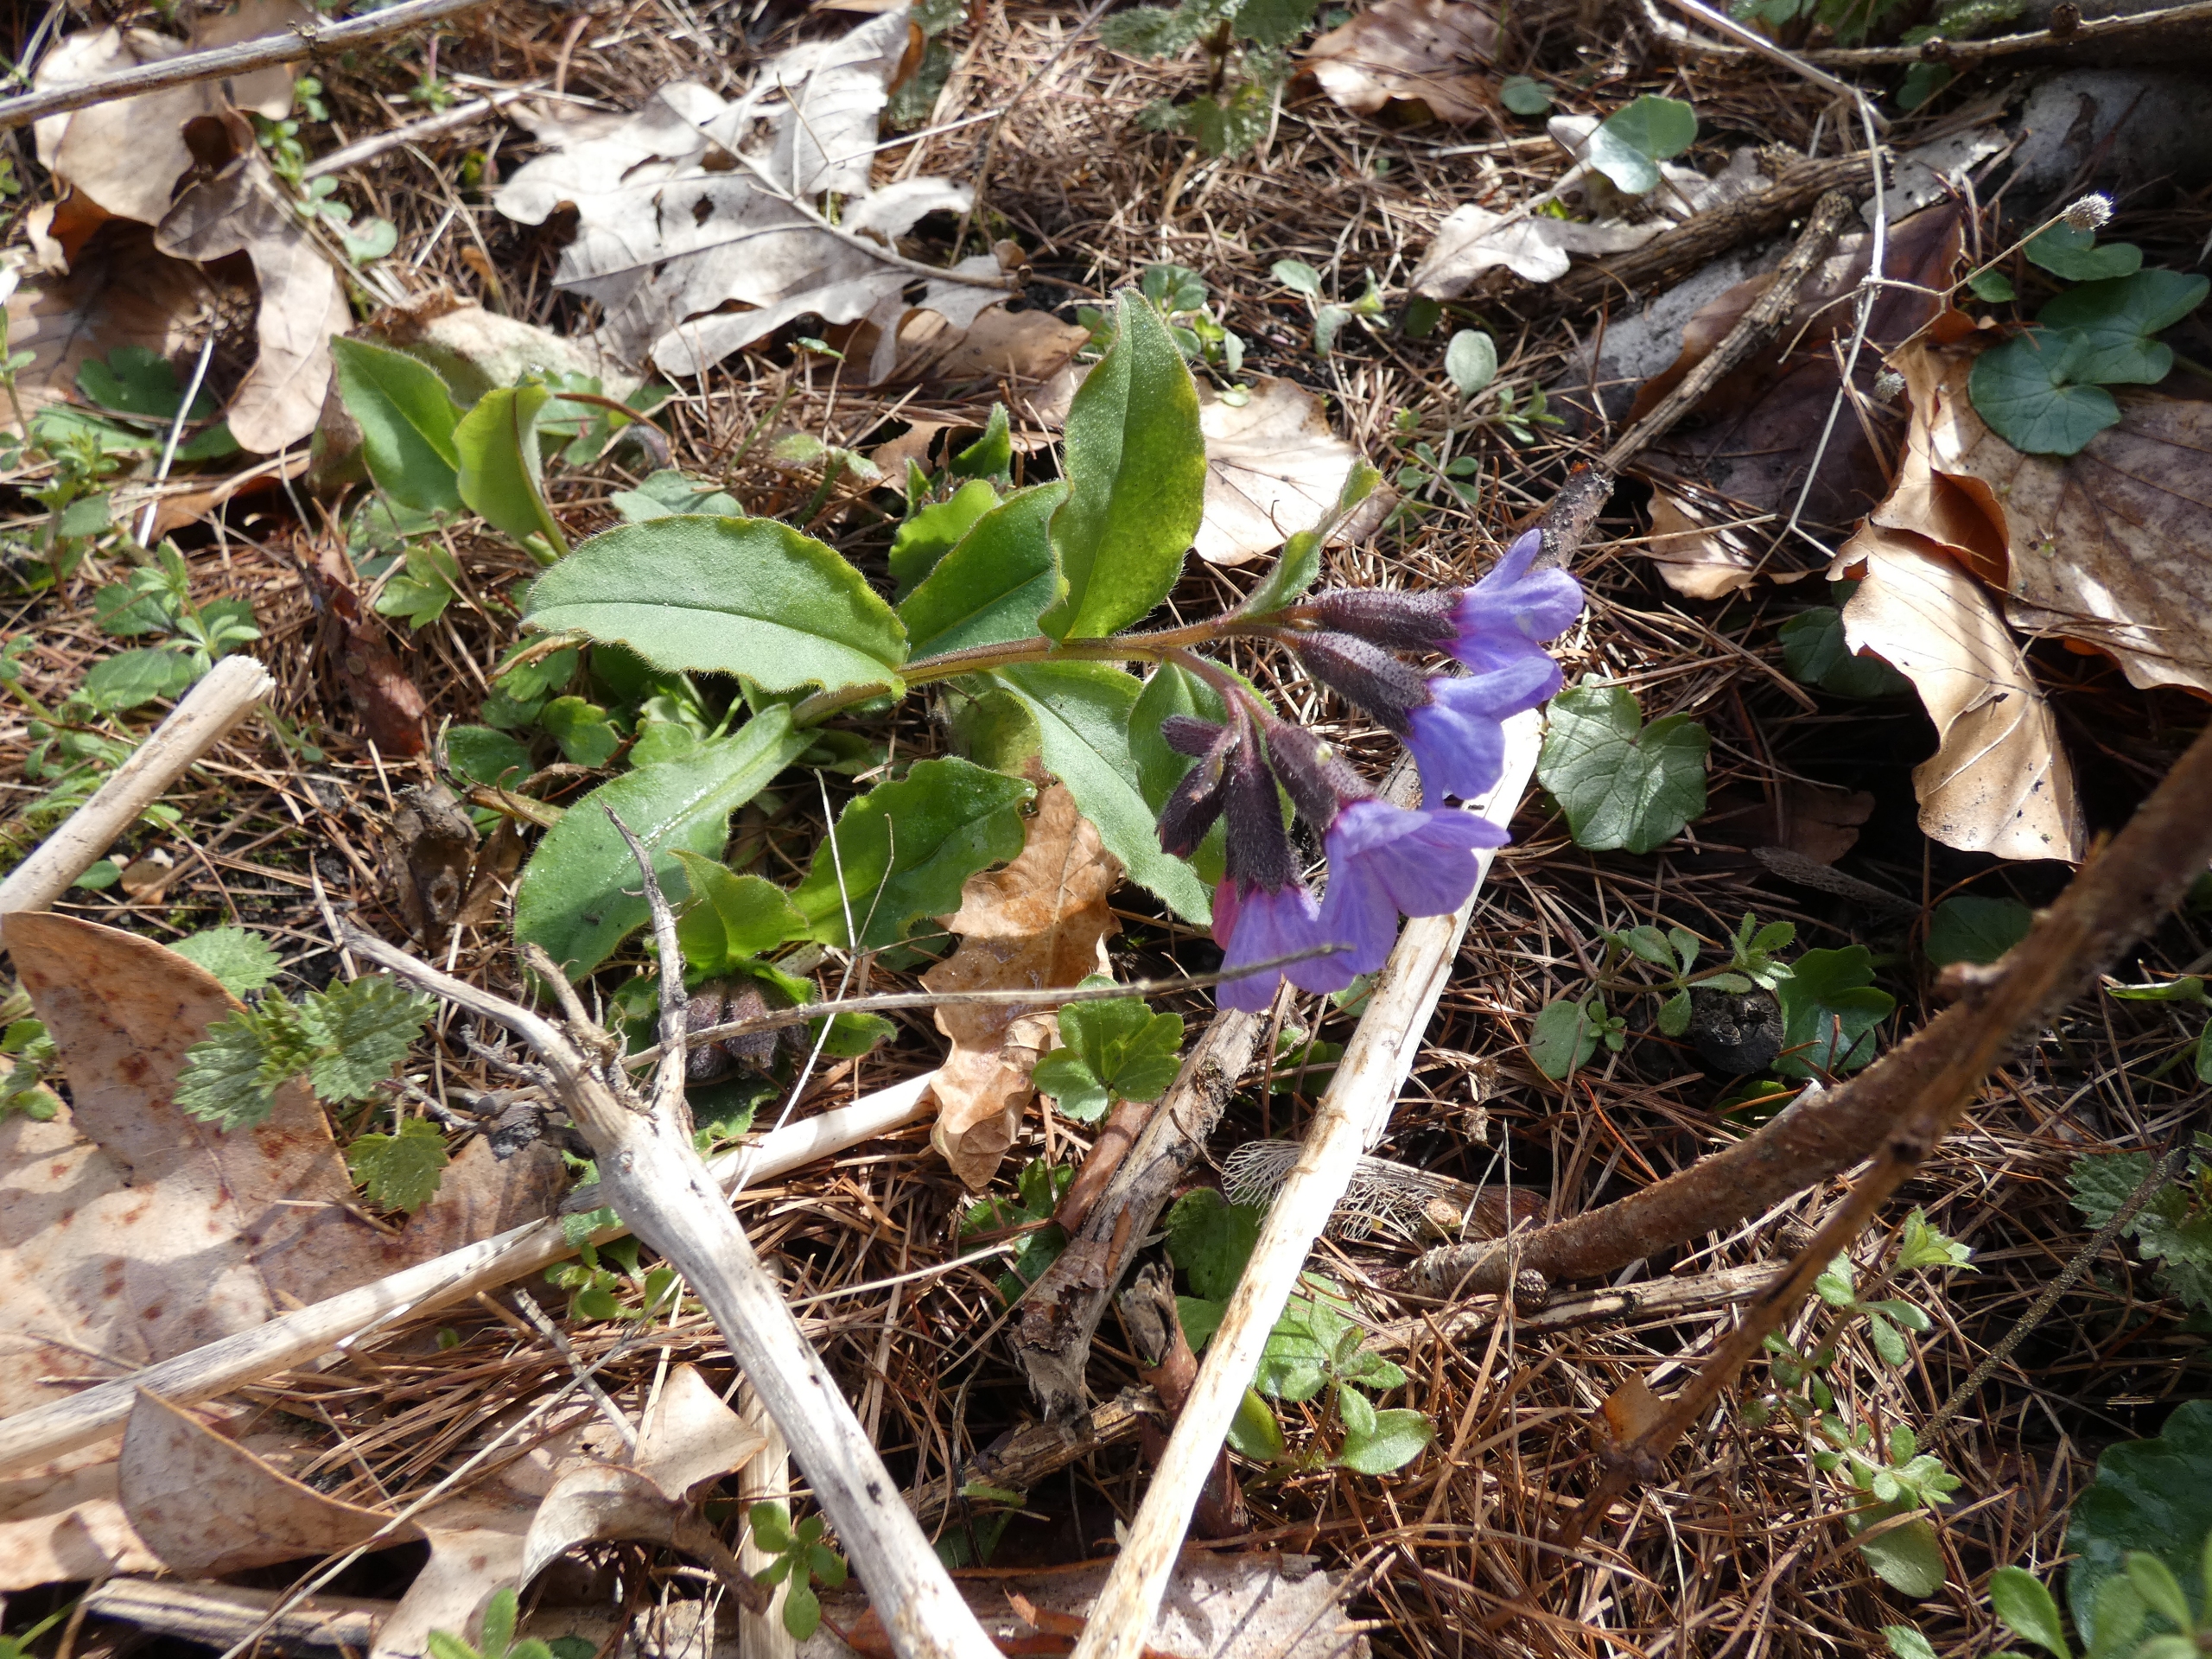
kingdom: Plantae
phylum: Tracheophyta
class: Magnoliopsida
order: Boraginales
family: Boraginaceae
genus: Pulmonaria
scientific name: Pulmonaria obscura
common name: Almindelig lungeurt
